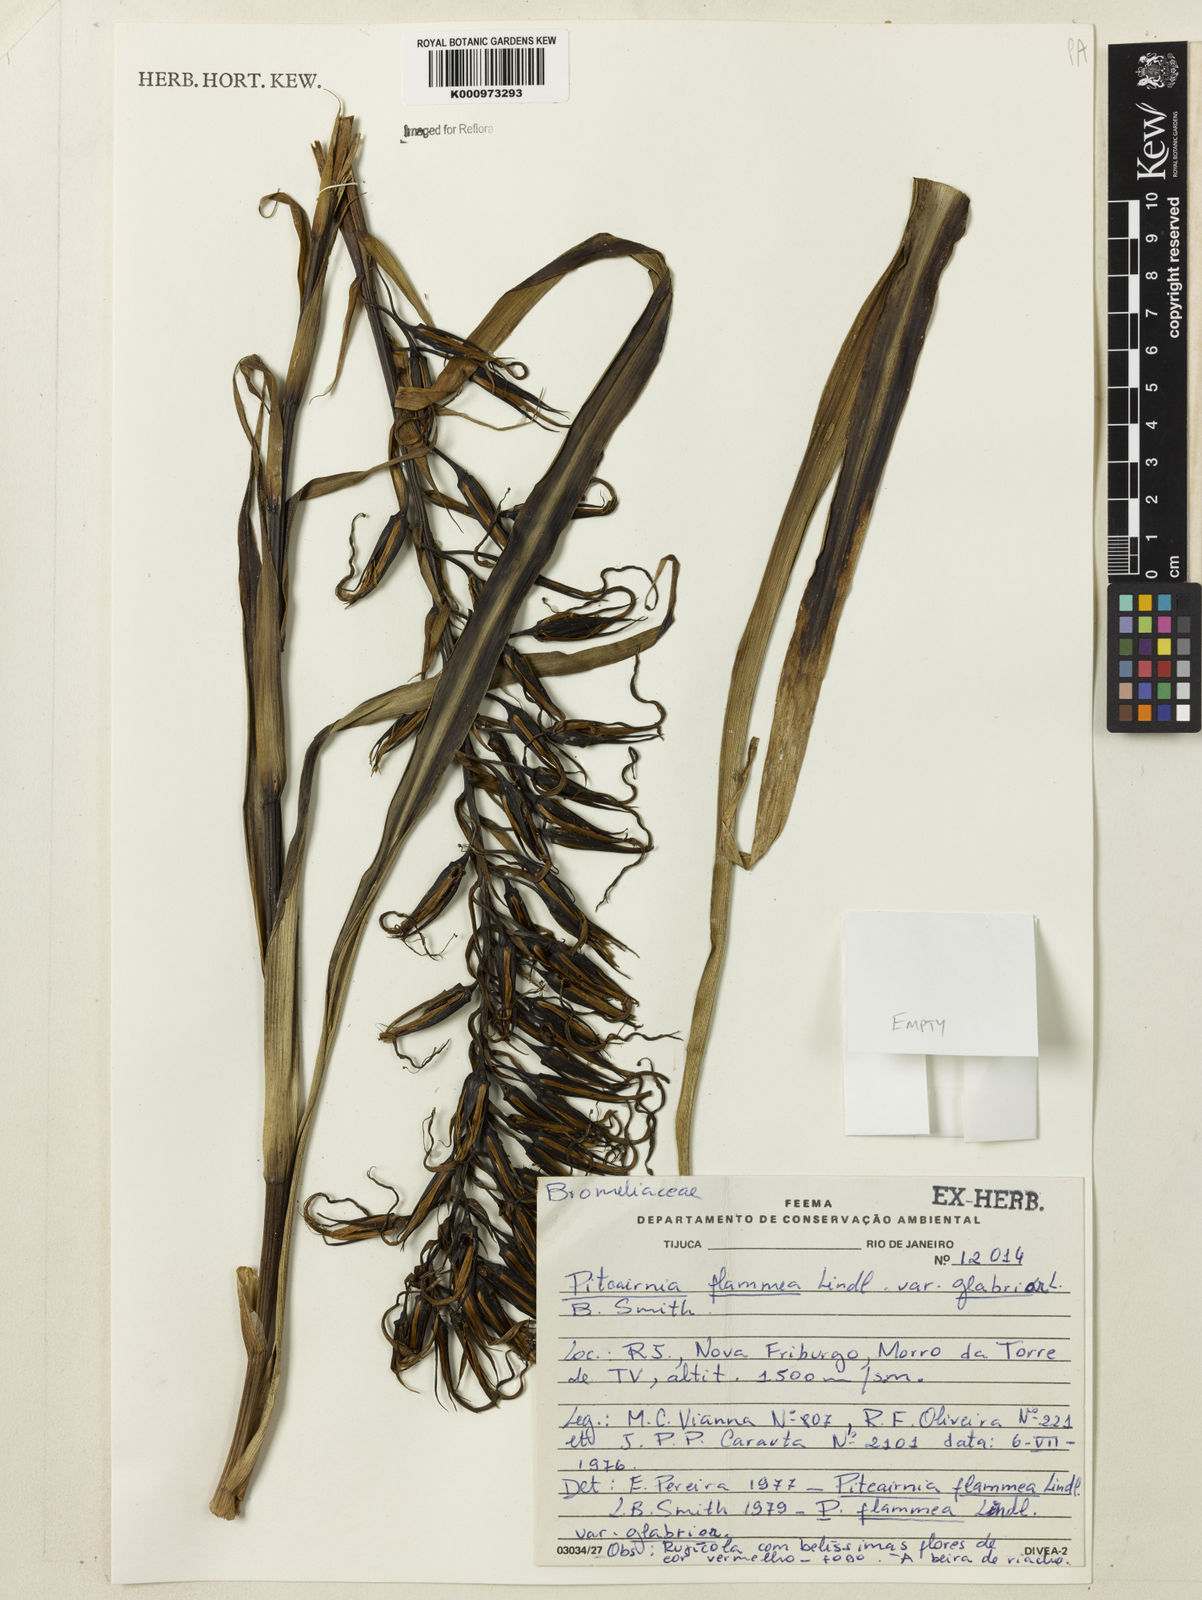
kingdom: Plantae
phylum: Tracheophyta
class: Liliopsida
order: Poales
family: Bromeliaceae
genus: Pitcairnia
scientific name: Pitcairnia flammea
